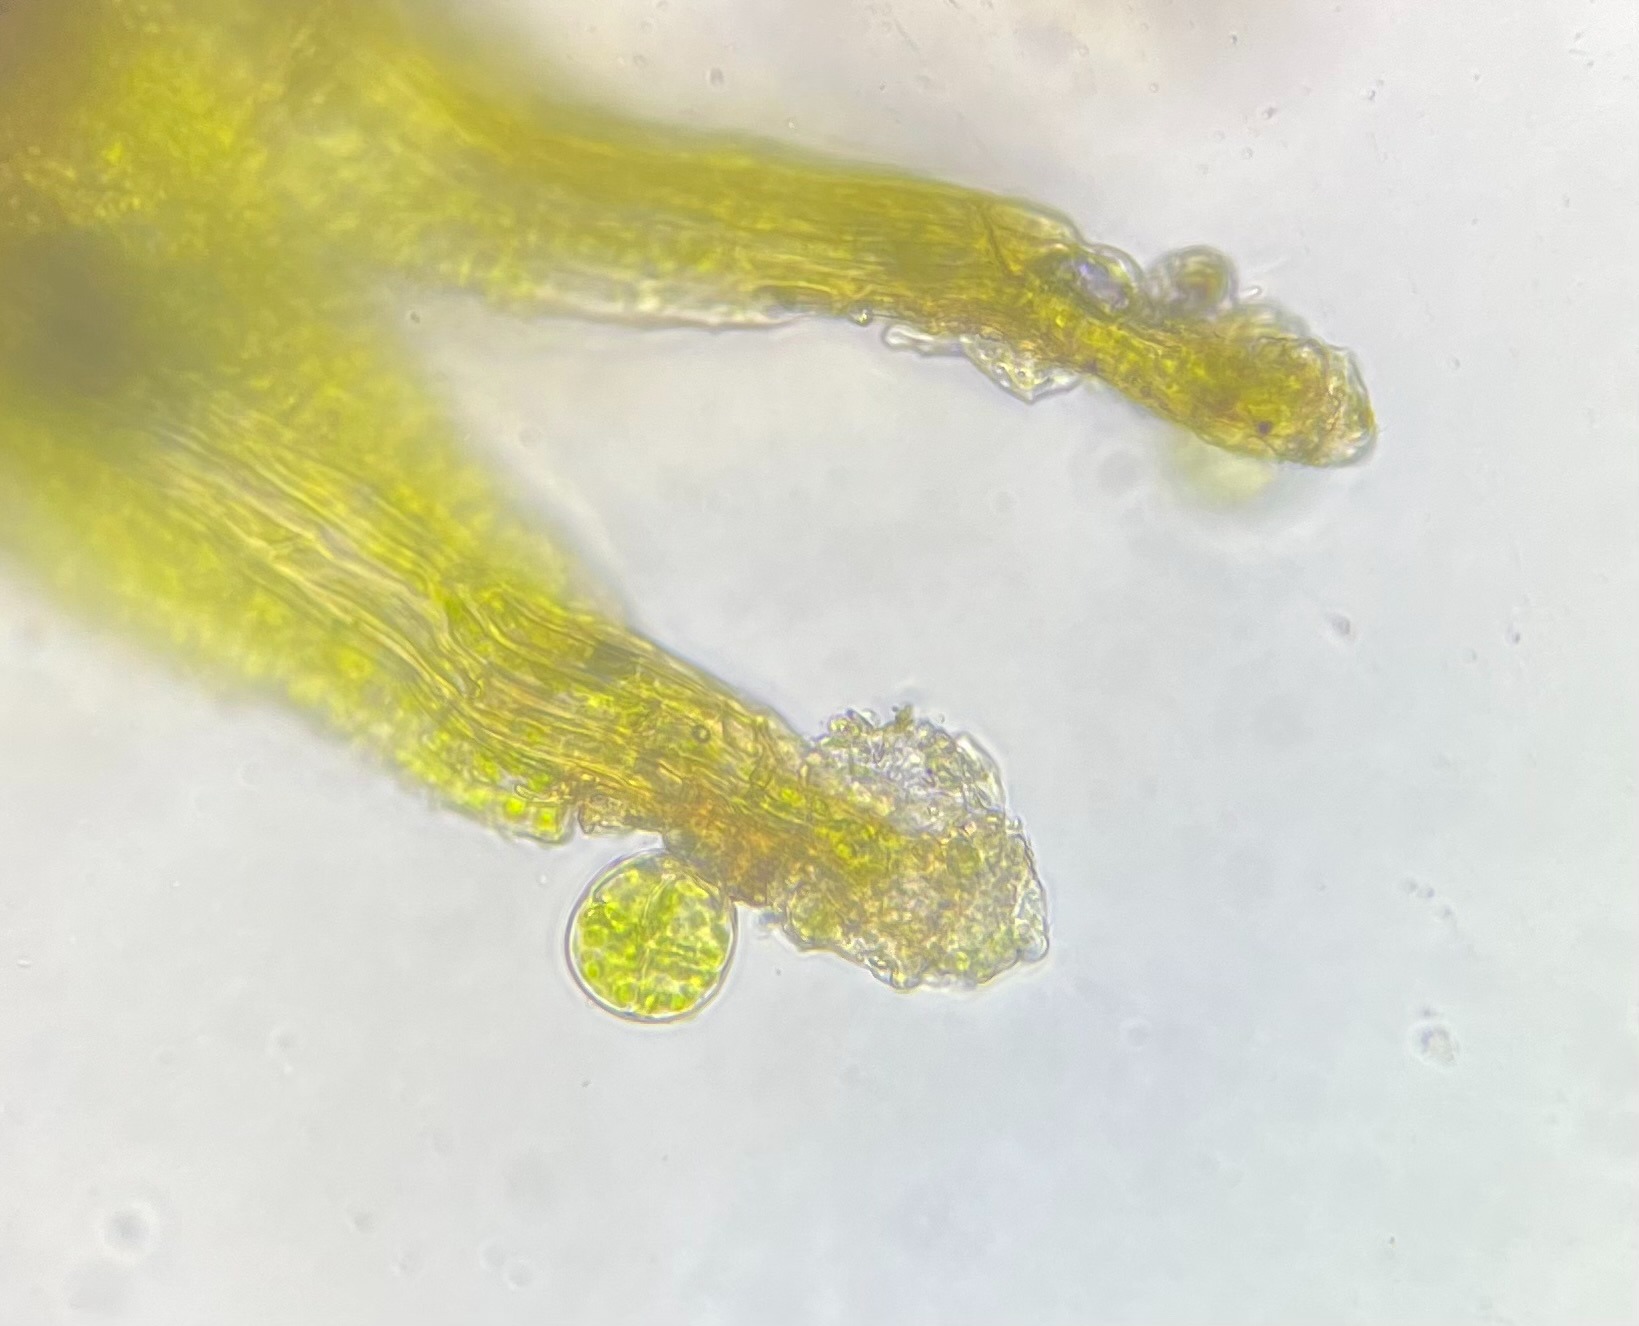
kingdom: Plantae
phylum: Bryophyta
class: Bryopsida
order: Pottiales
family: Pottiaceae
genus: Leptodontium
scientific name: Leptodontium gemmascens
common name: Brod-smaltand
